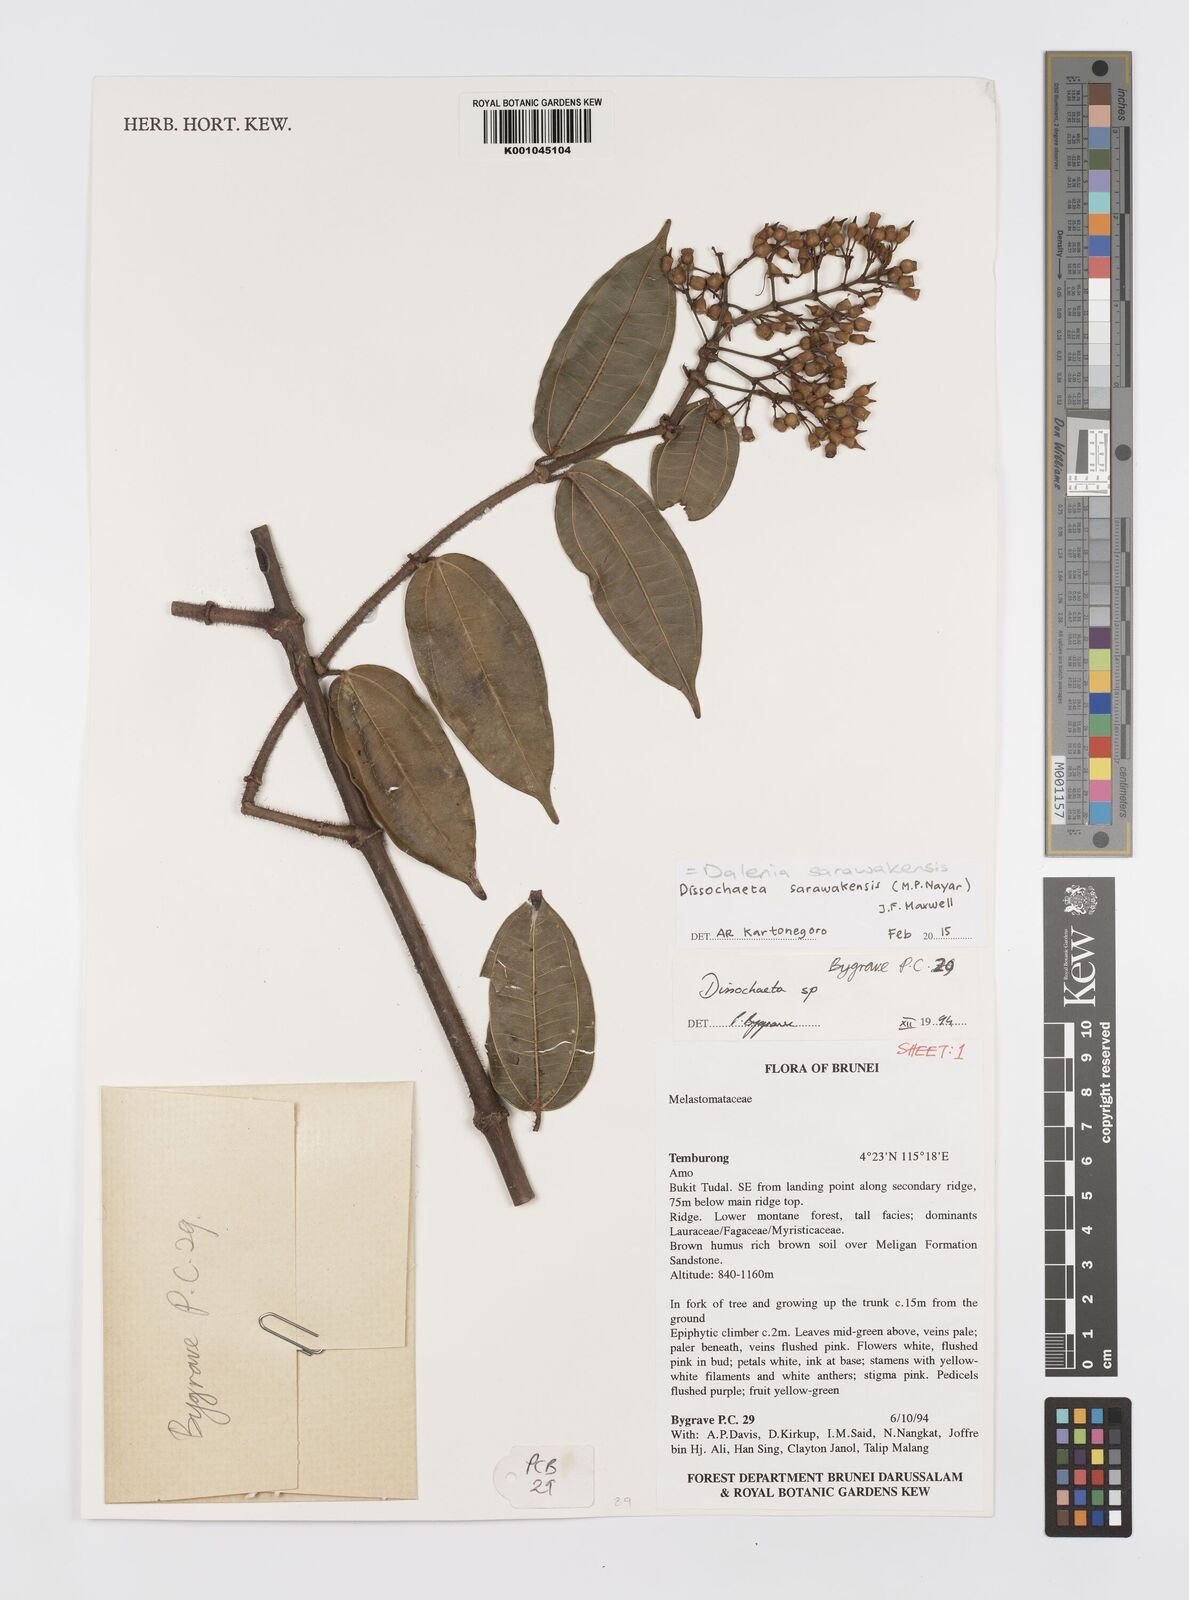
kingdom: Plantae
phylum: Tracheophyta
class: Magnoliopsida
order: Myrtales
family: Melastomataceae
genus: Dalenia
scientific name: Dalenia sarawakensis
